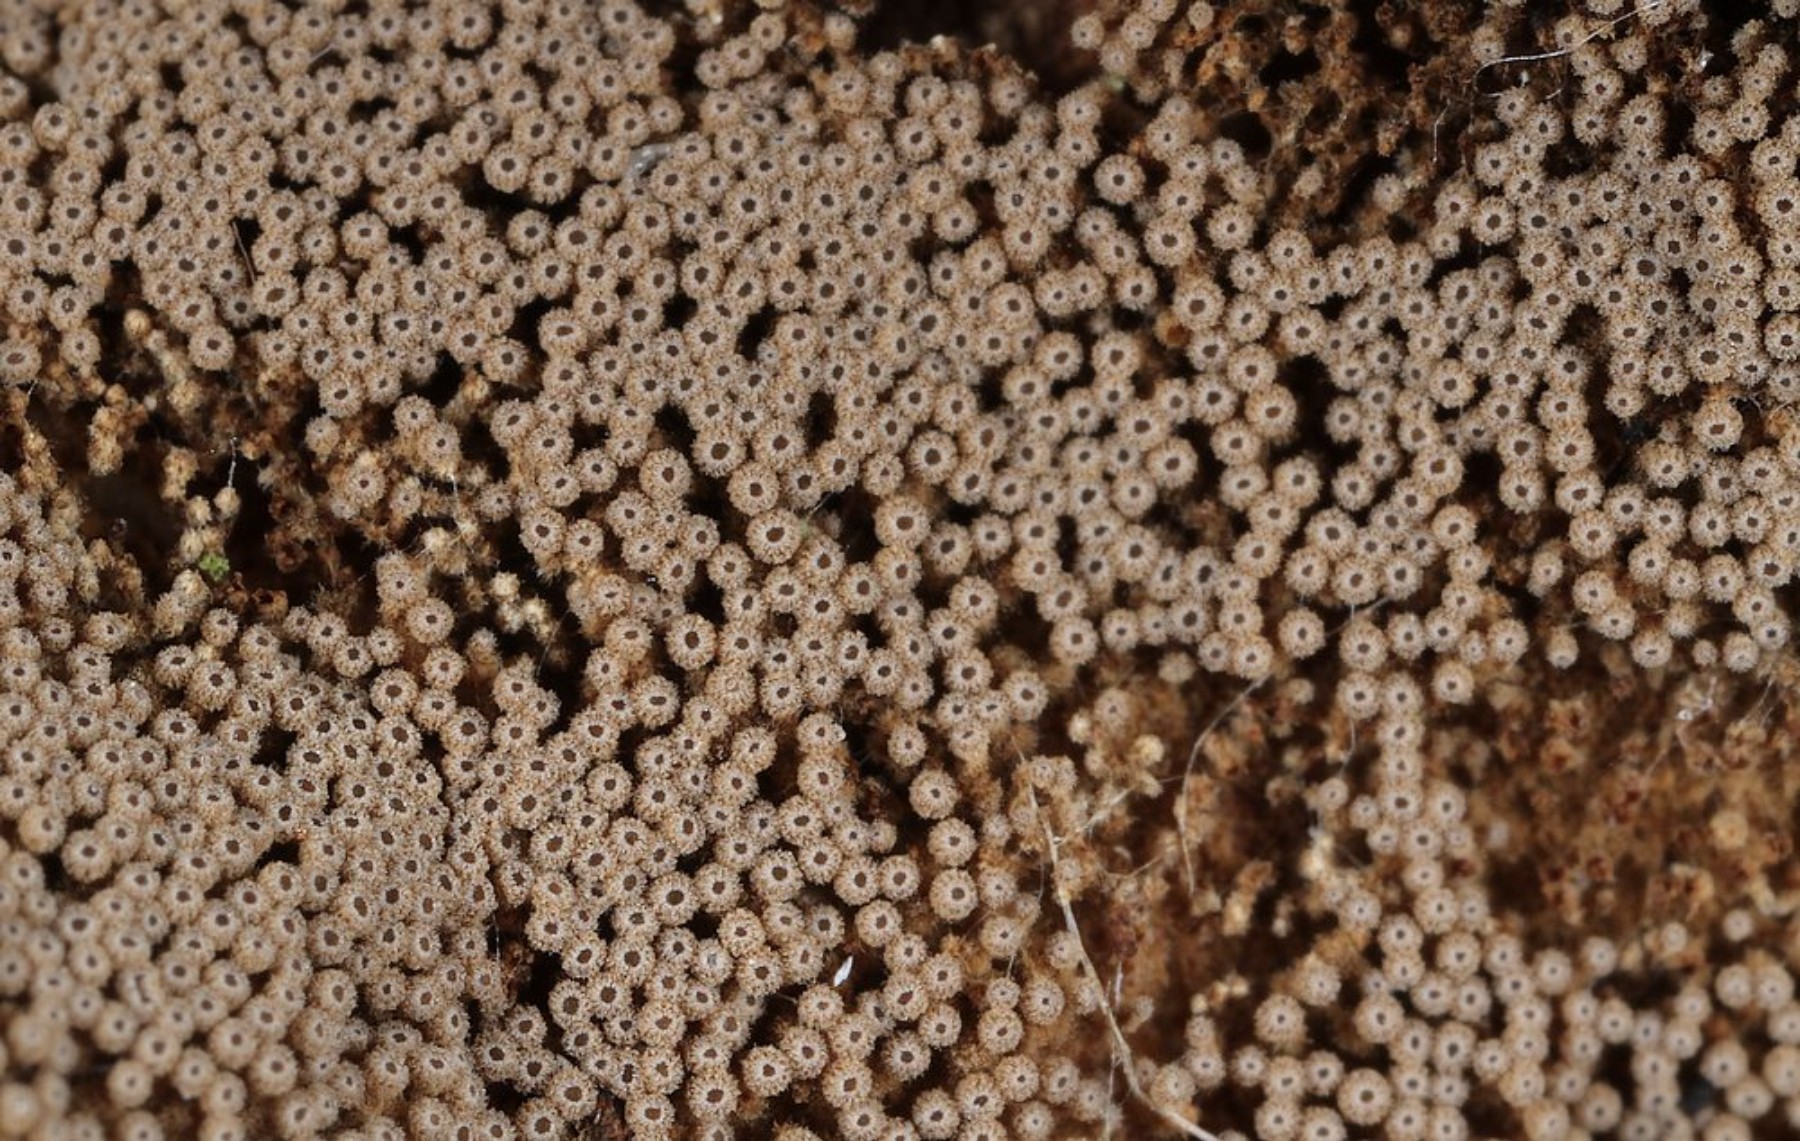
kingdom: Fungi
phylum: Basidiomycota
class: Agaricomycetes
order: Agaricales
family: Niaceae
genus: Merismodes
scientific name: Merismodes anomala
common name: almindelig læderskål
